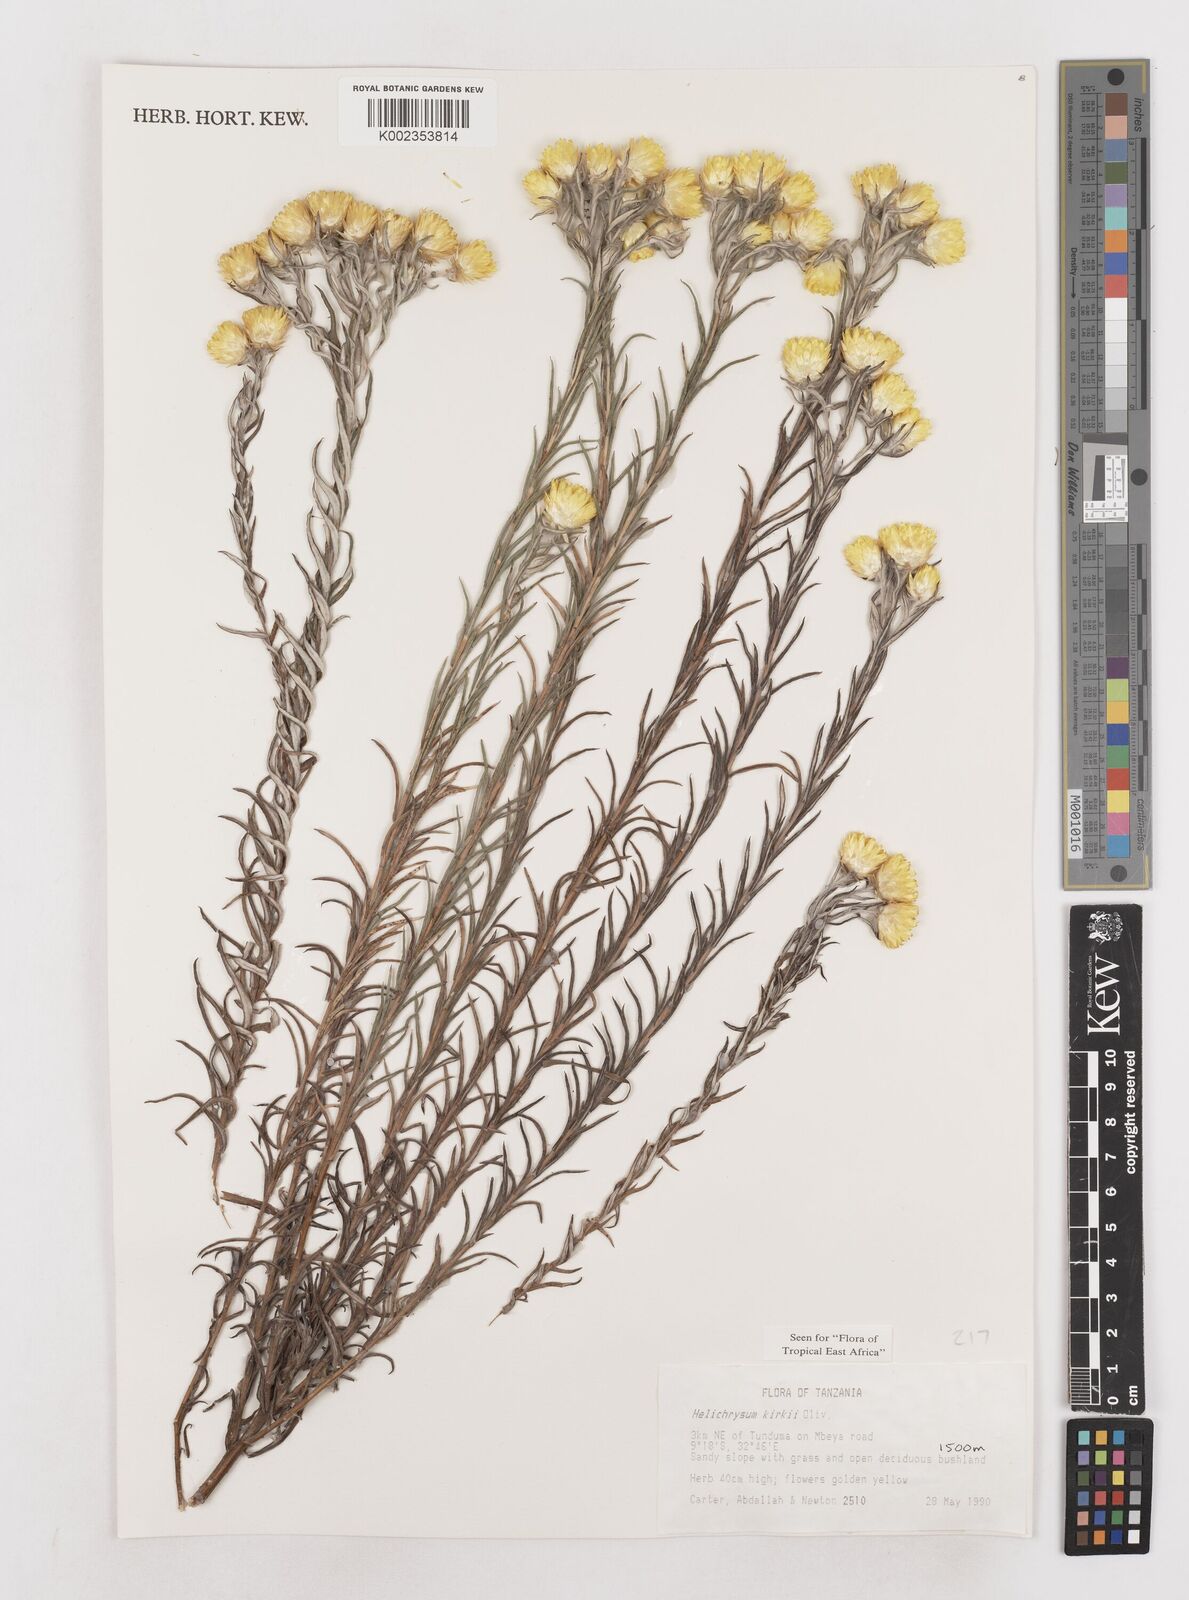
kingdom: Plantae
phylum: Tracheophyta
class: Magnoliopsida
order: Asterales
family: Asteraceae
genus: Helichrysum
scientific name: Helichrysum kirkii
